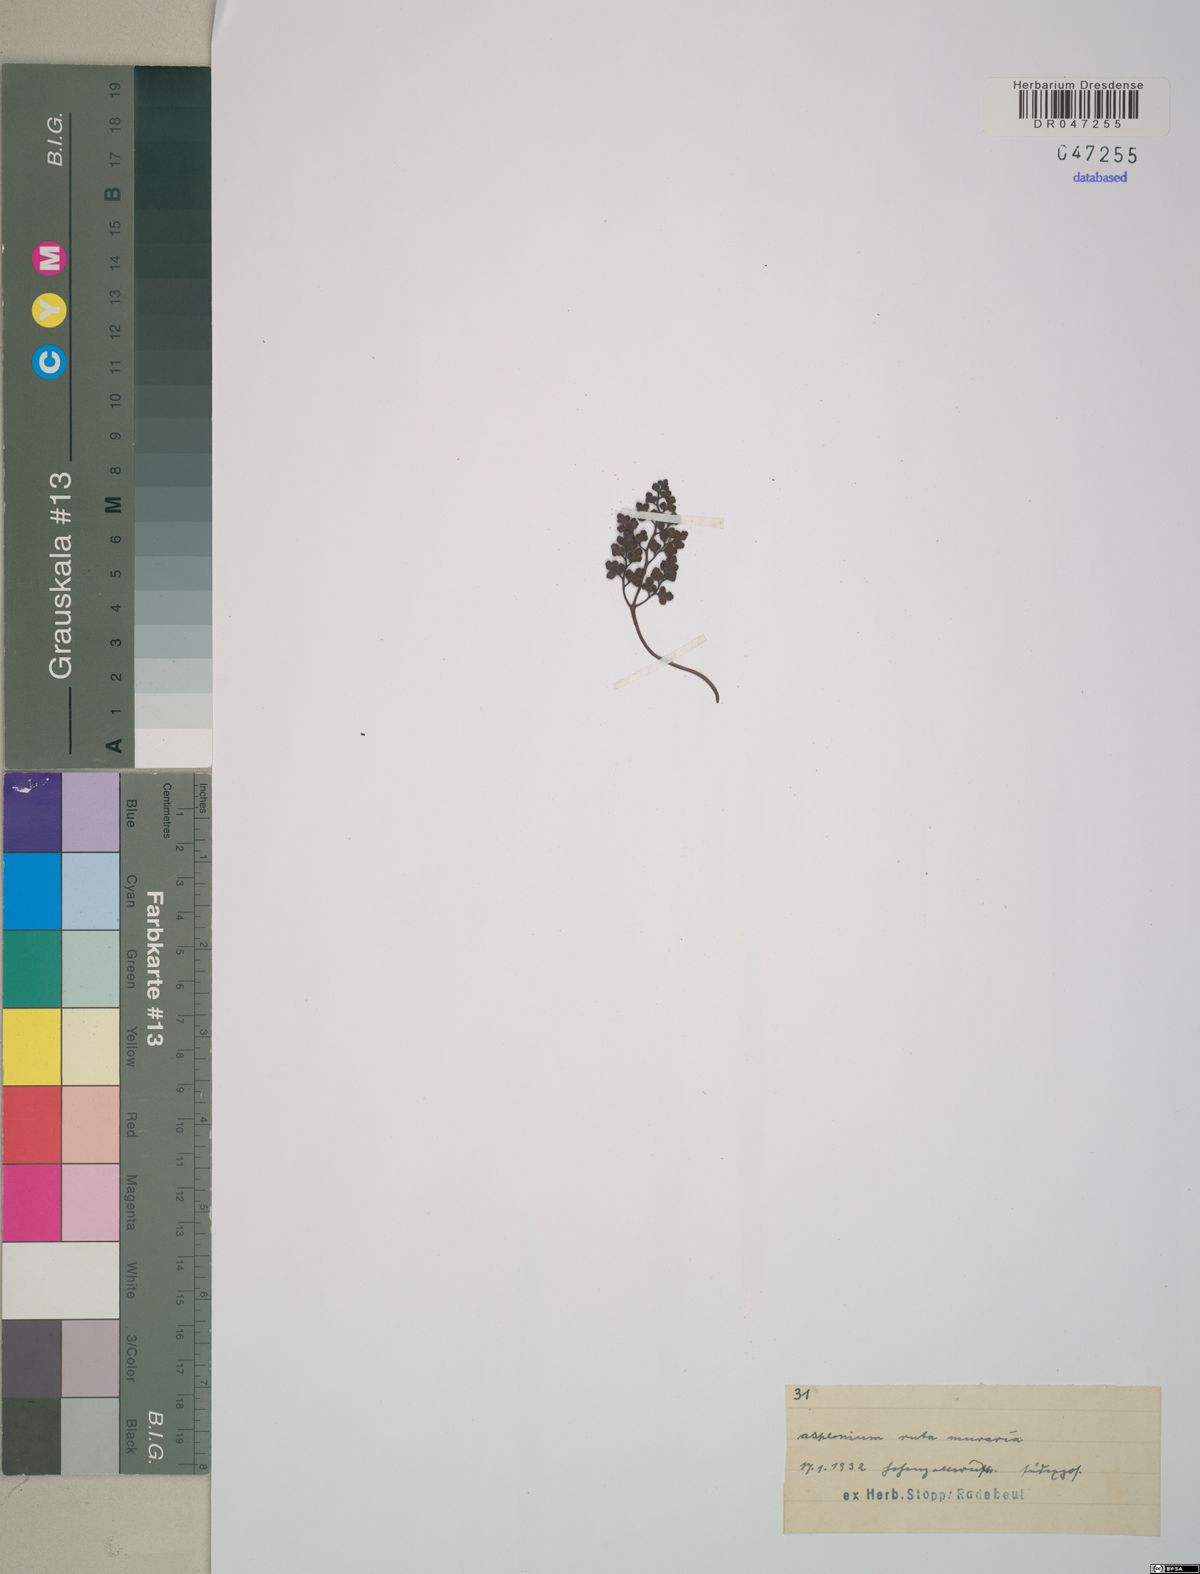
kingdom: Plantae
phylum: Tracheophyta
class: Polypodiopsida
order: Polypodiales
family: Aspleniaceae
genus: Asplenium
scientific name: Asplenium ruta-muraria
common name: Wall-rue
